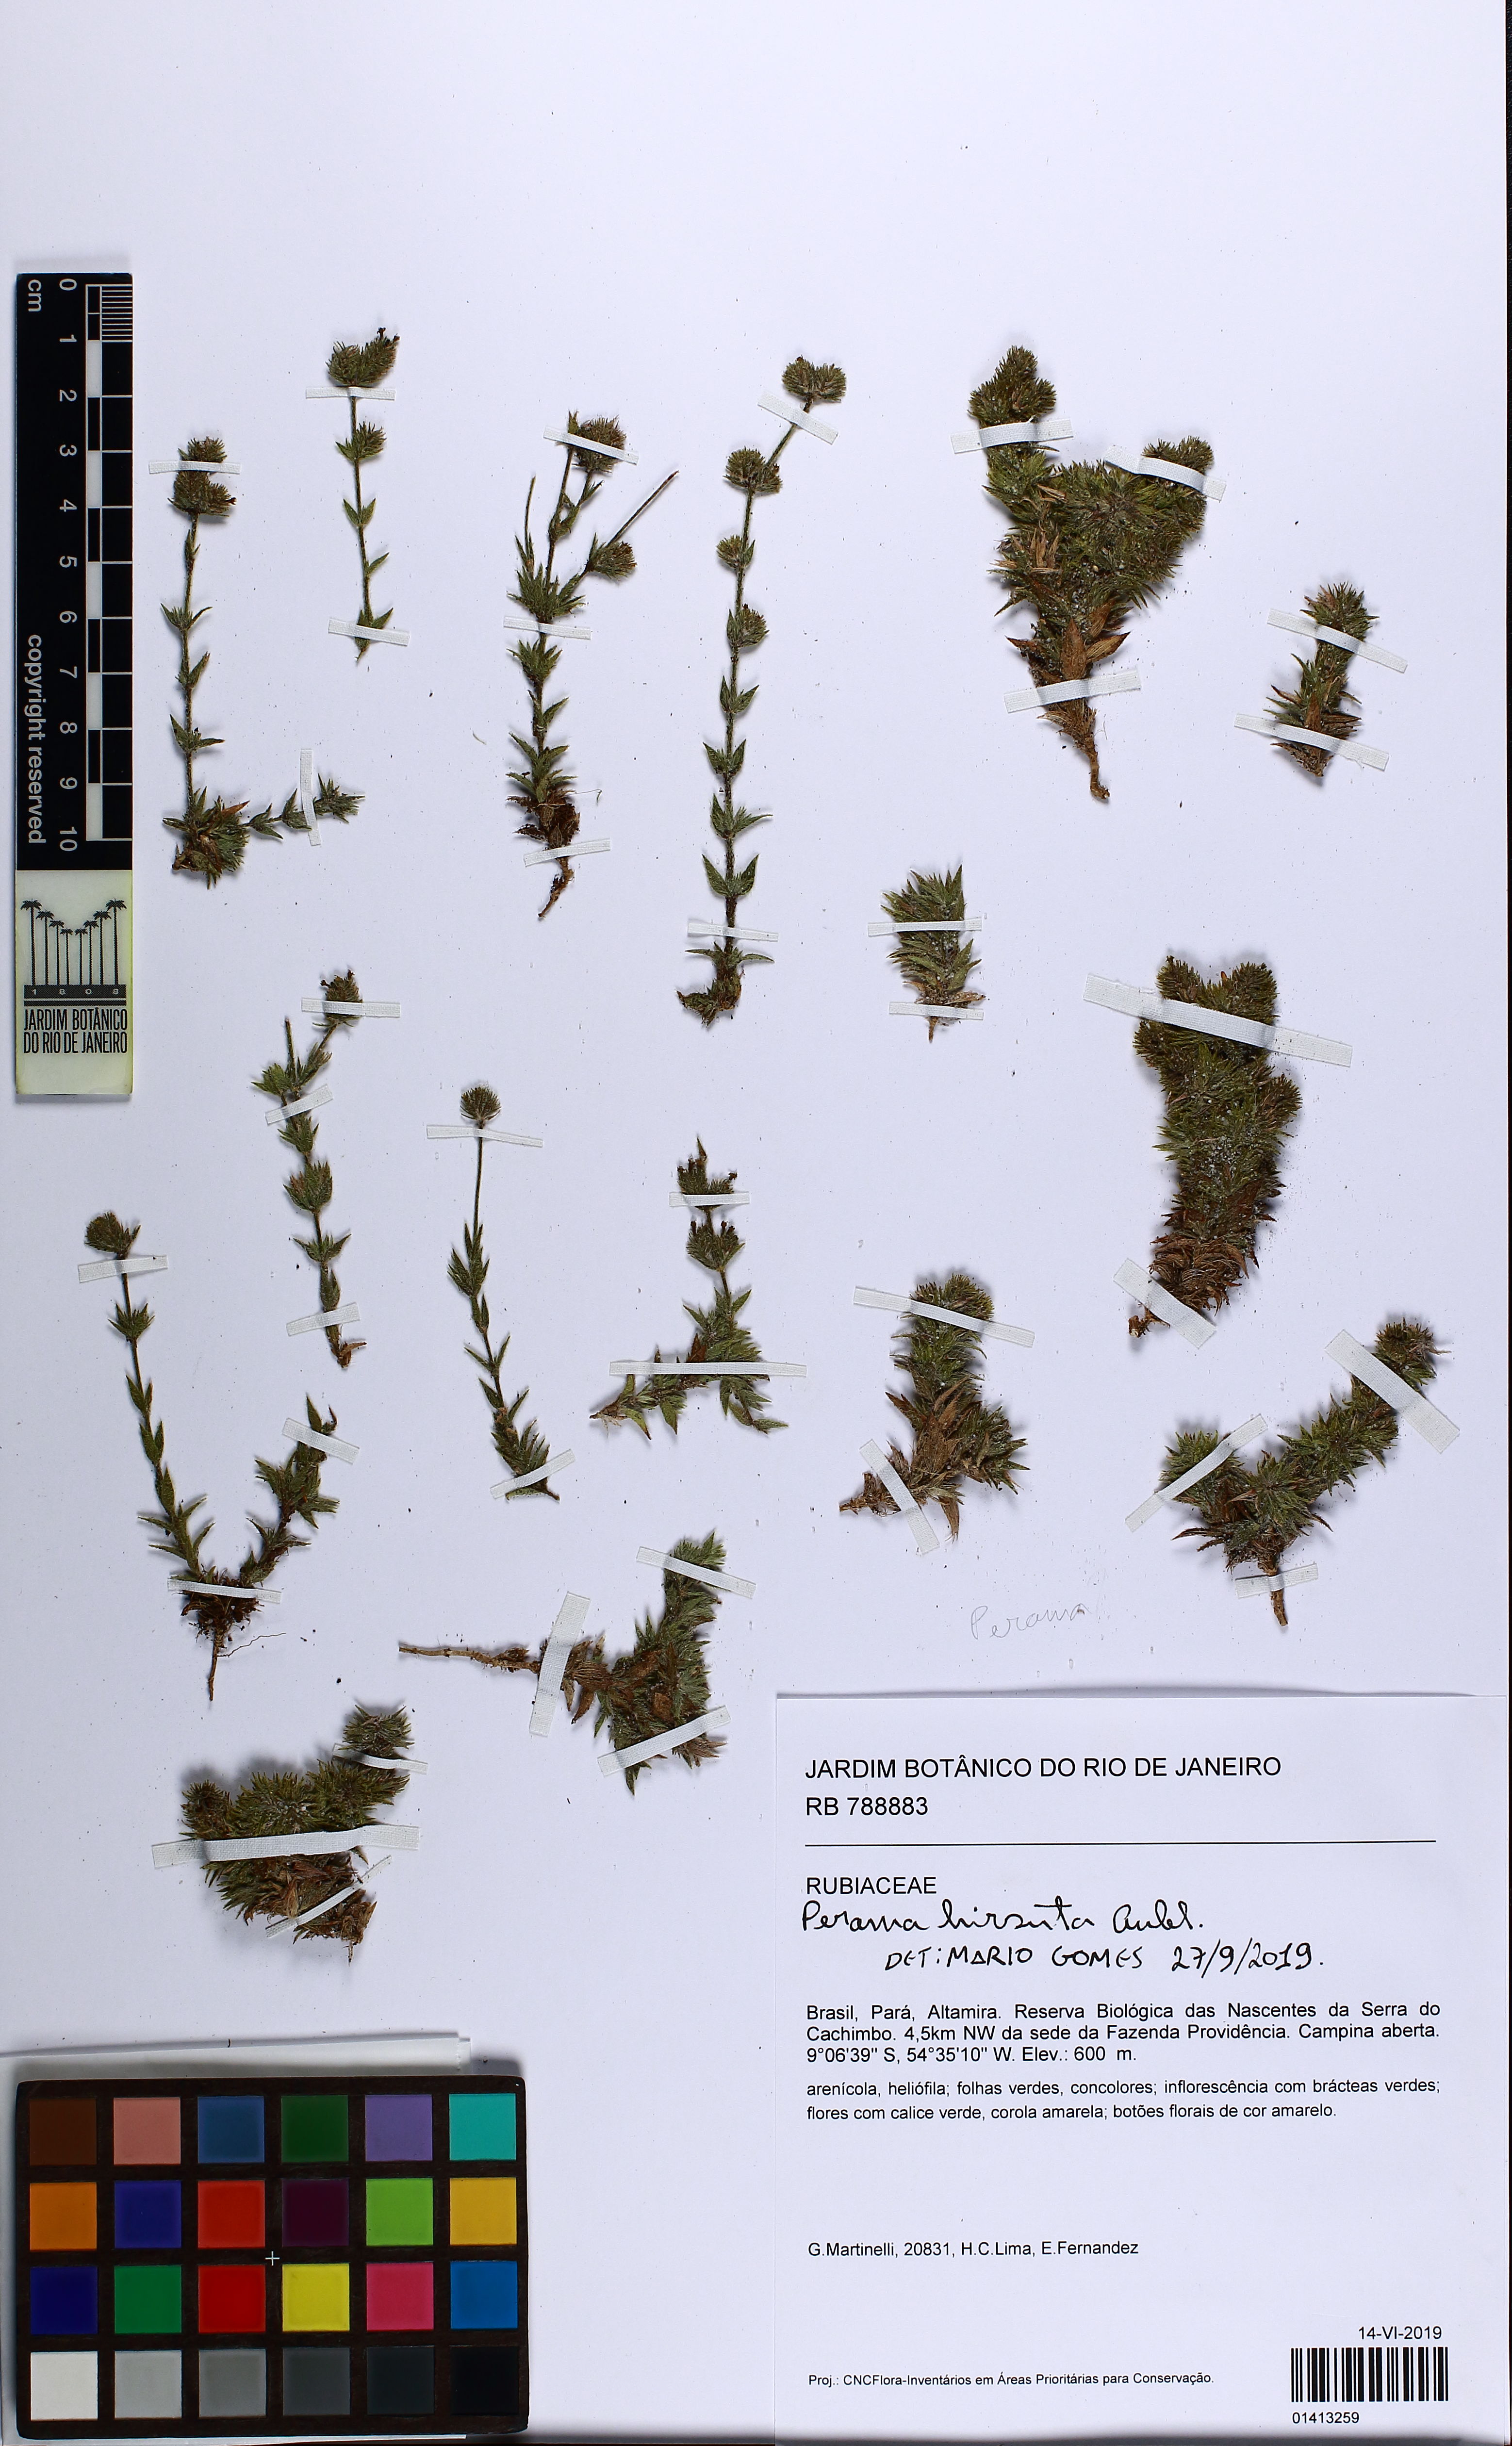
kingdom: Plantae
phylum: Tracheophyta
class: Magnoliopsida
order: Gentianales
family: Rubiaceae
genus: Perama
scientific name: Perama hirsuta
